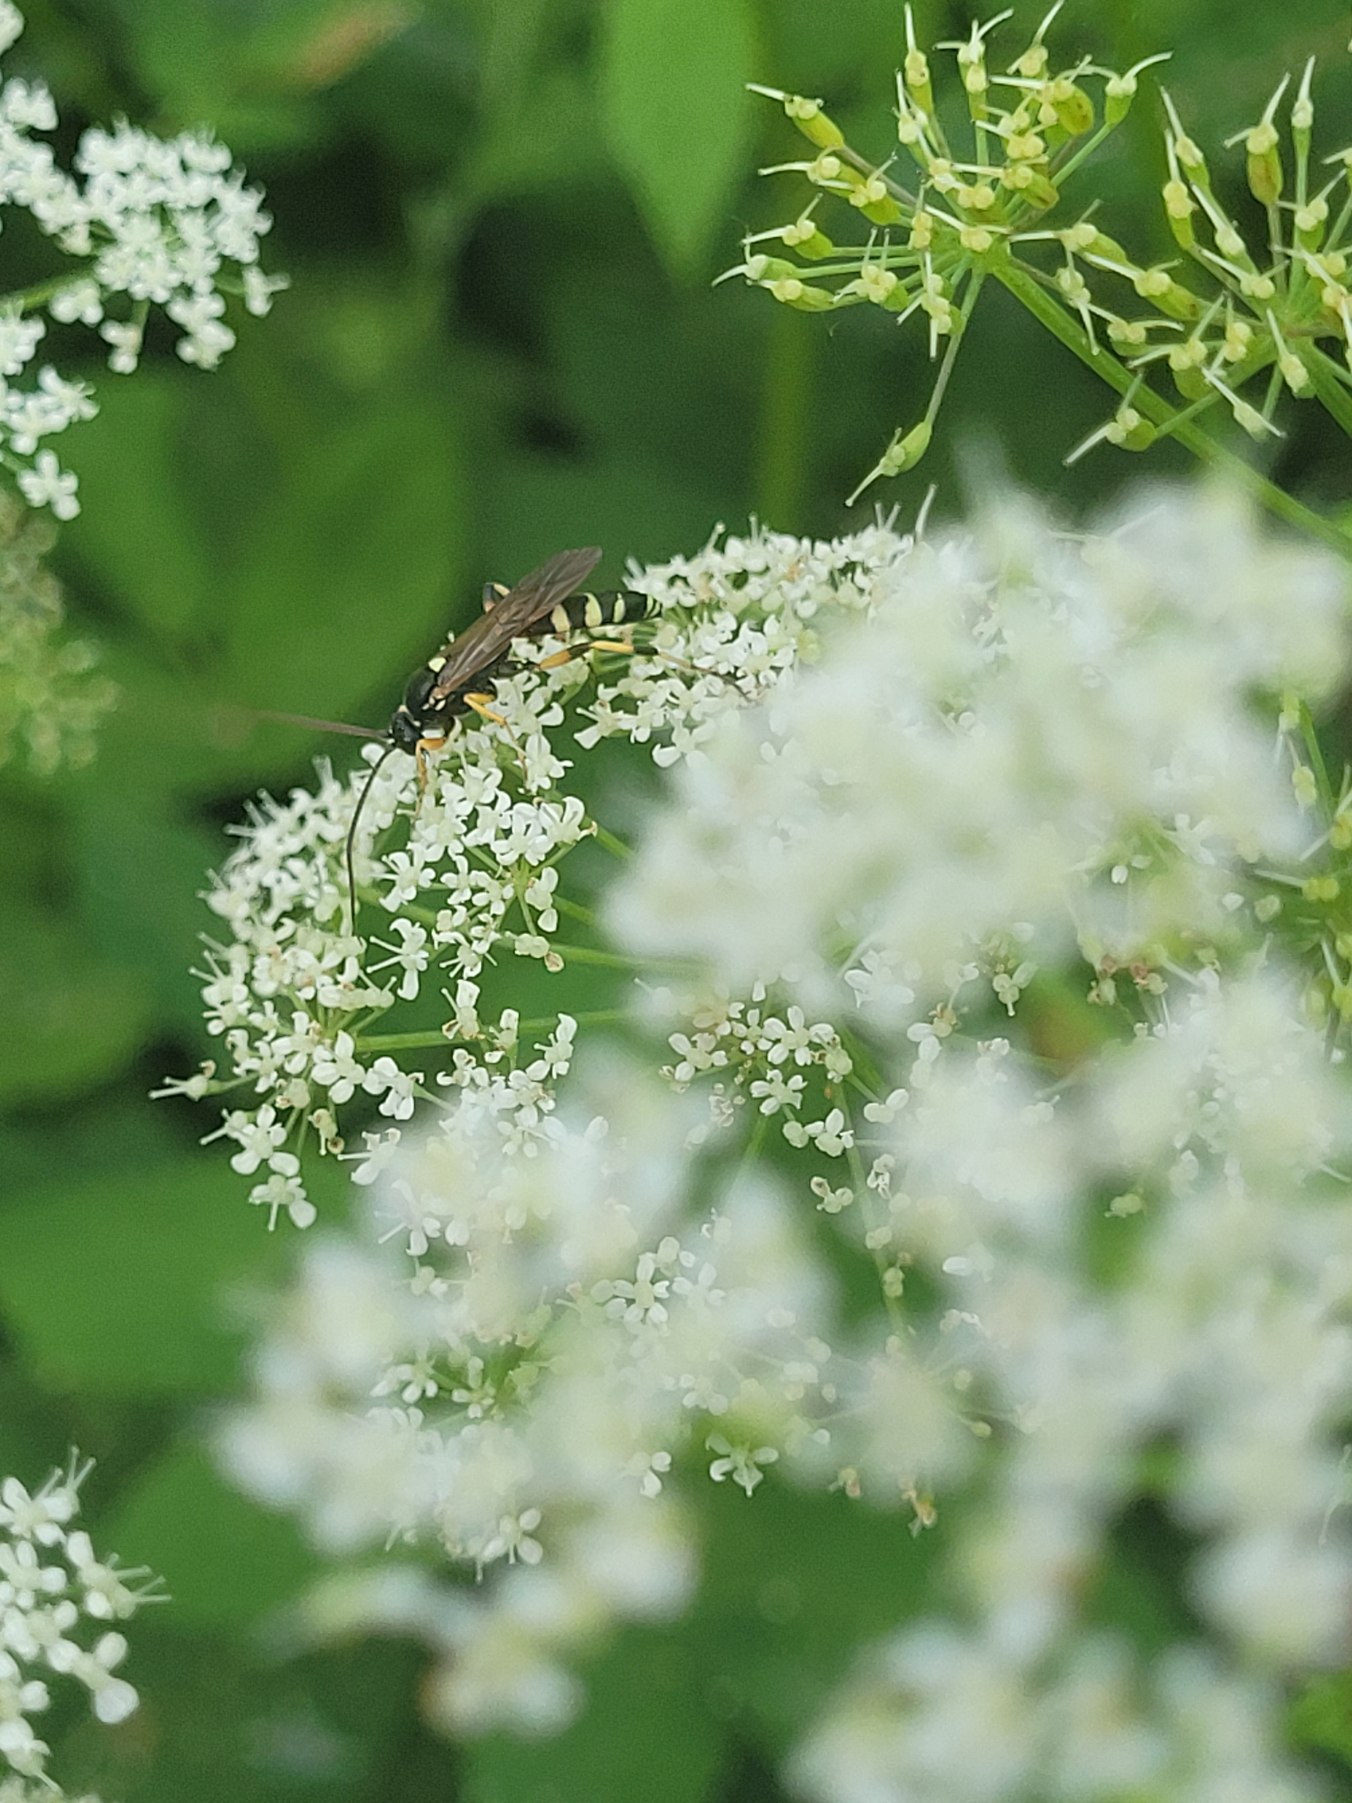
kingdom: Animalia
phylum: Arthropoda
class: Insecta
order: Hymenoptera
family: Ichneumonidae
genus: Ichneumon
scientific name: Ichneumon sarcitorius
